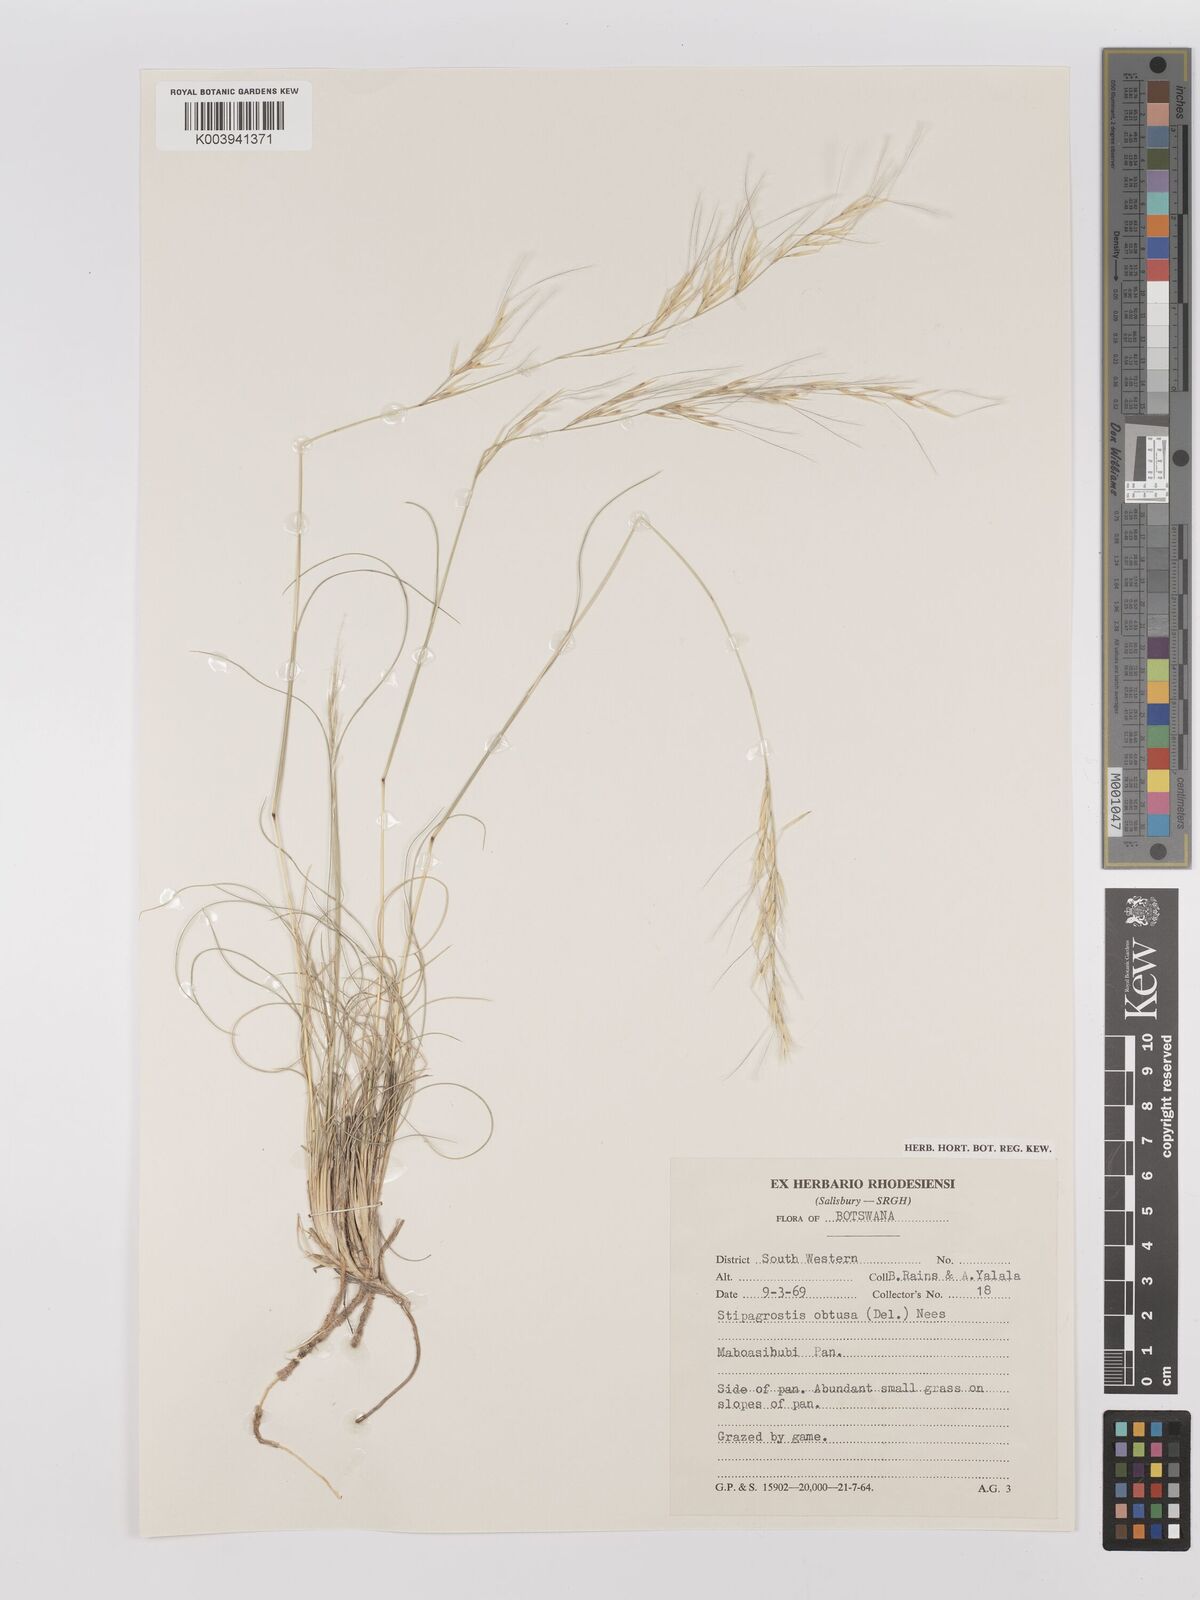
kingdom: Plantae
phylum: Tracheophyta
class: Liliopsida
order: Poales
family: Poaceae
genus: Stipagrostis
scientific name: Stipagrostis obtusa
